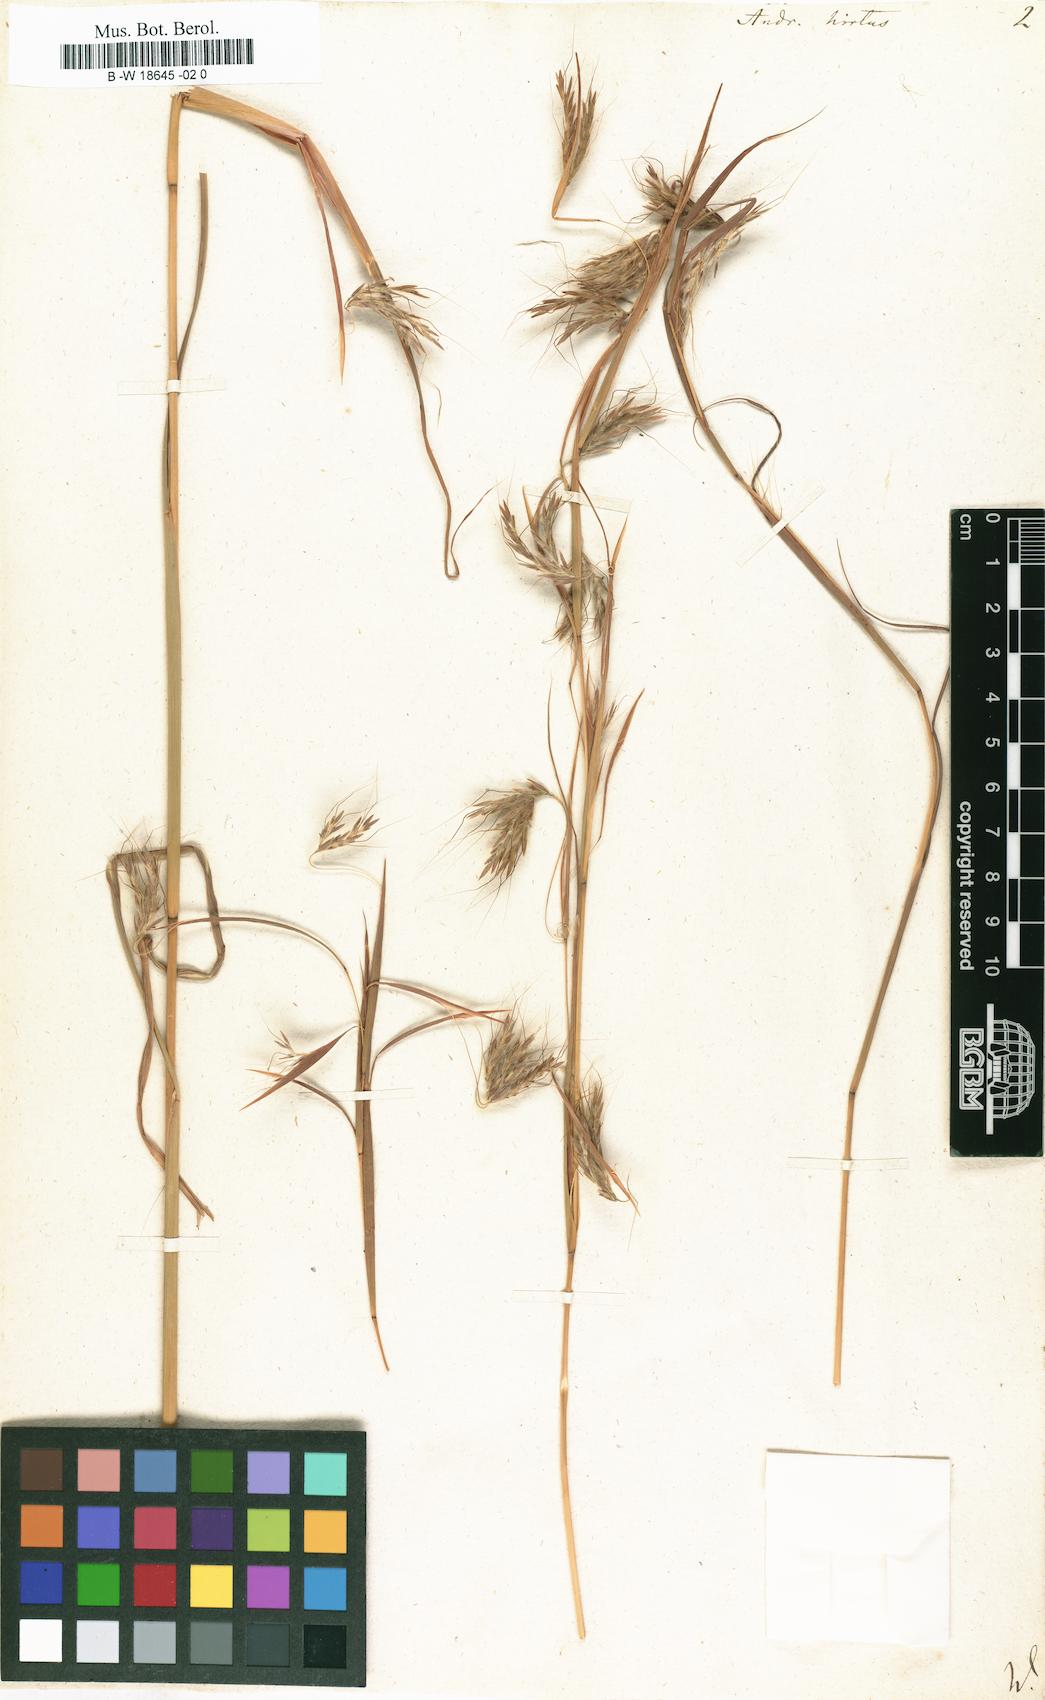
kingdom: Plantae
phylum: Tracheophyta
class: Liliopsida
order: Poales
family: Poaceae
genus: Hyparrhenia
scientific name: Hyparrhenia hirta
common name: Thatching grass
